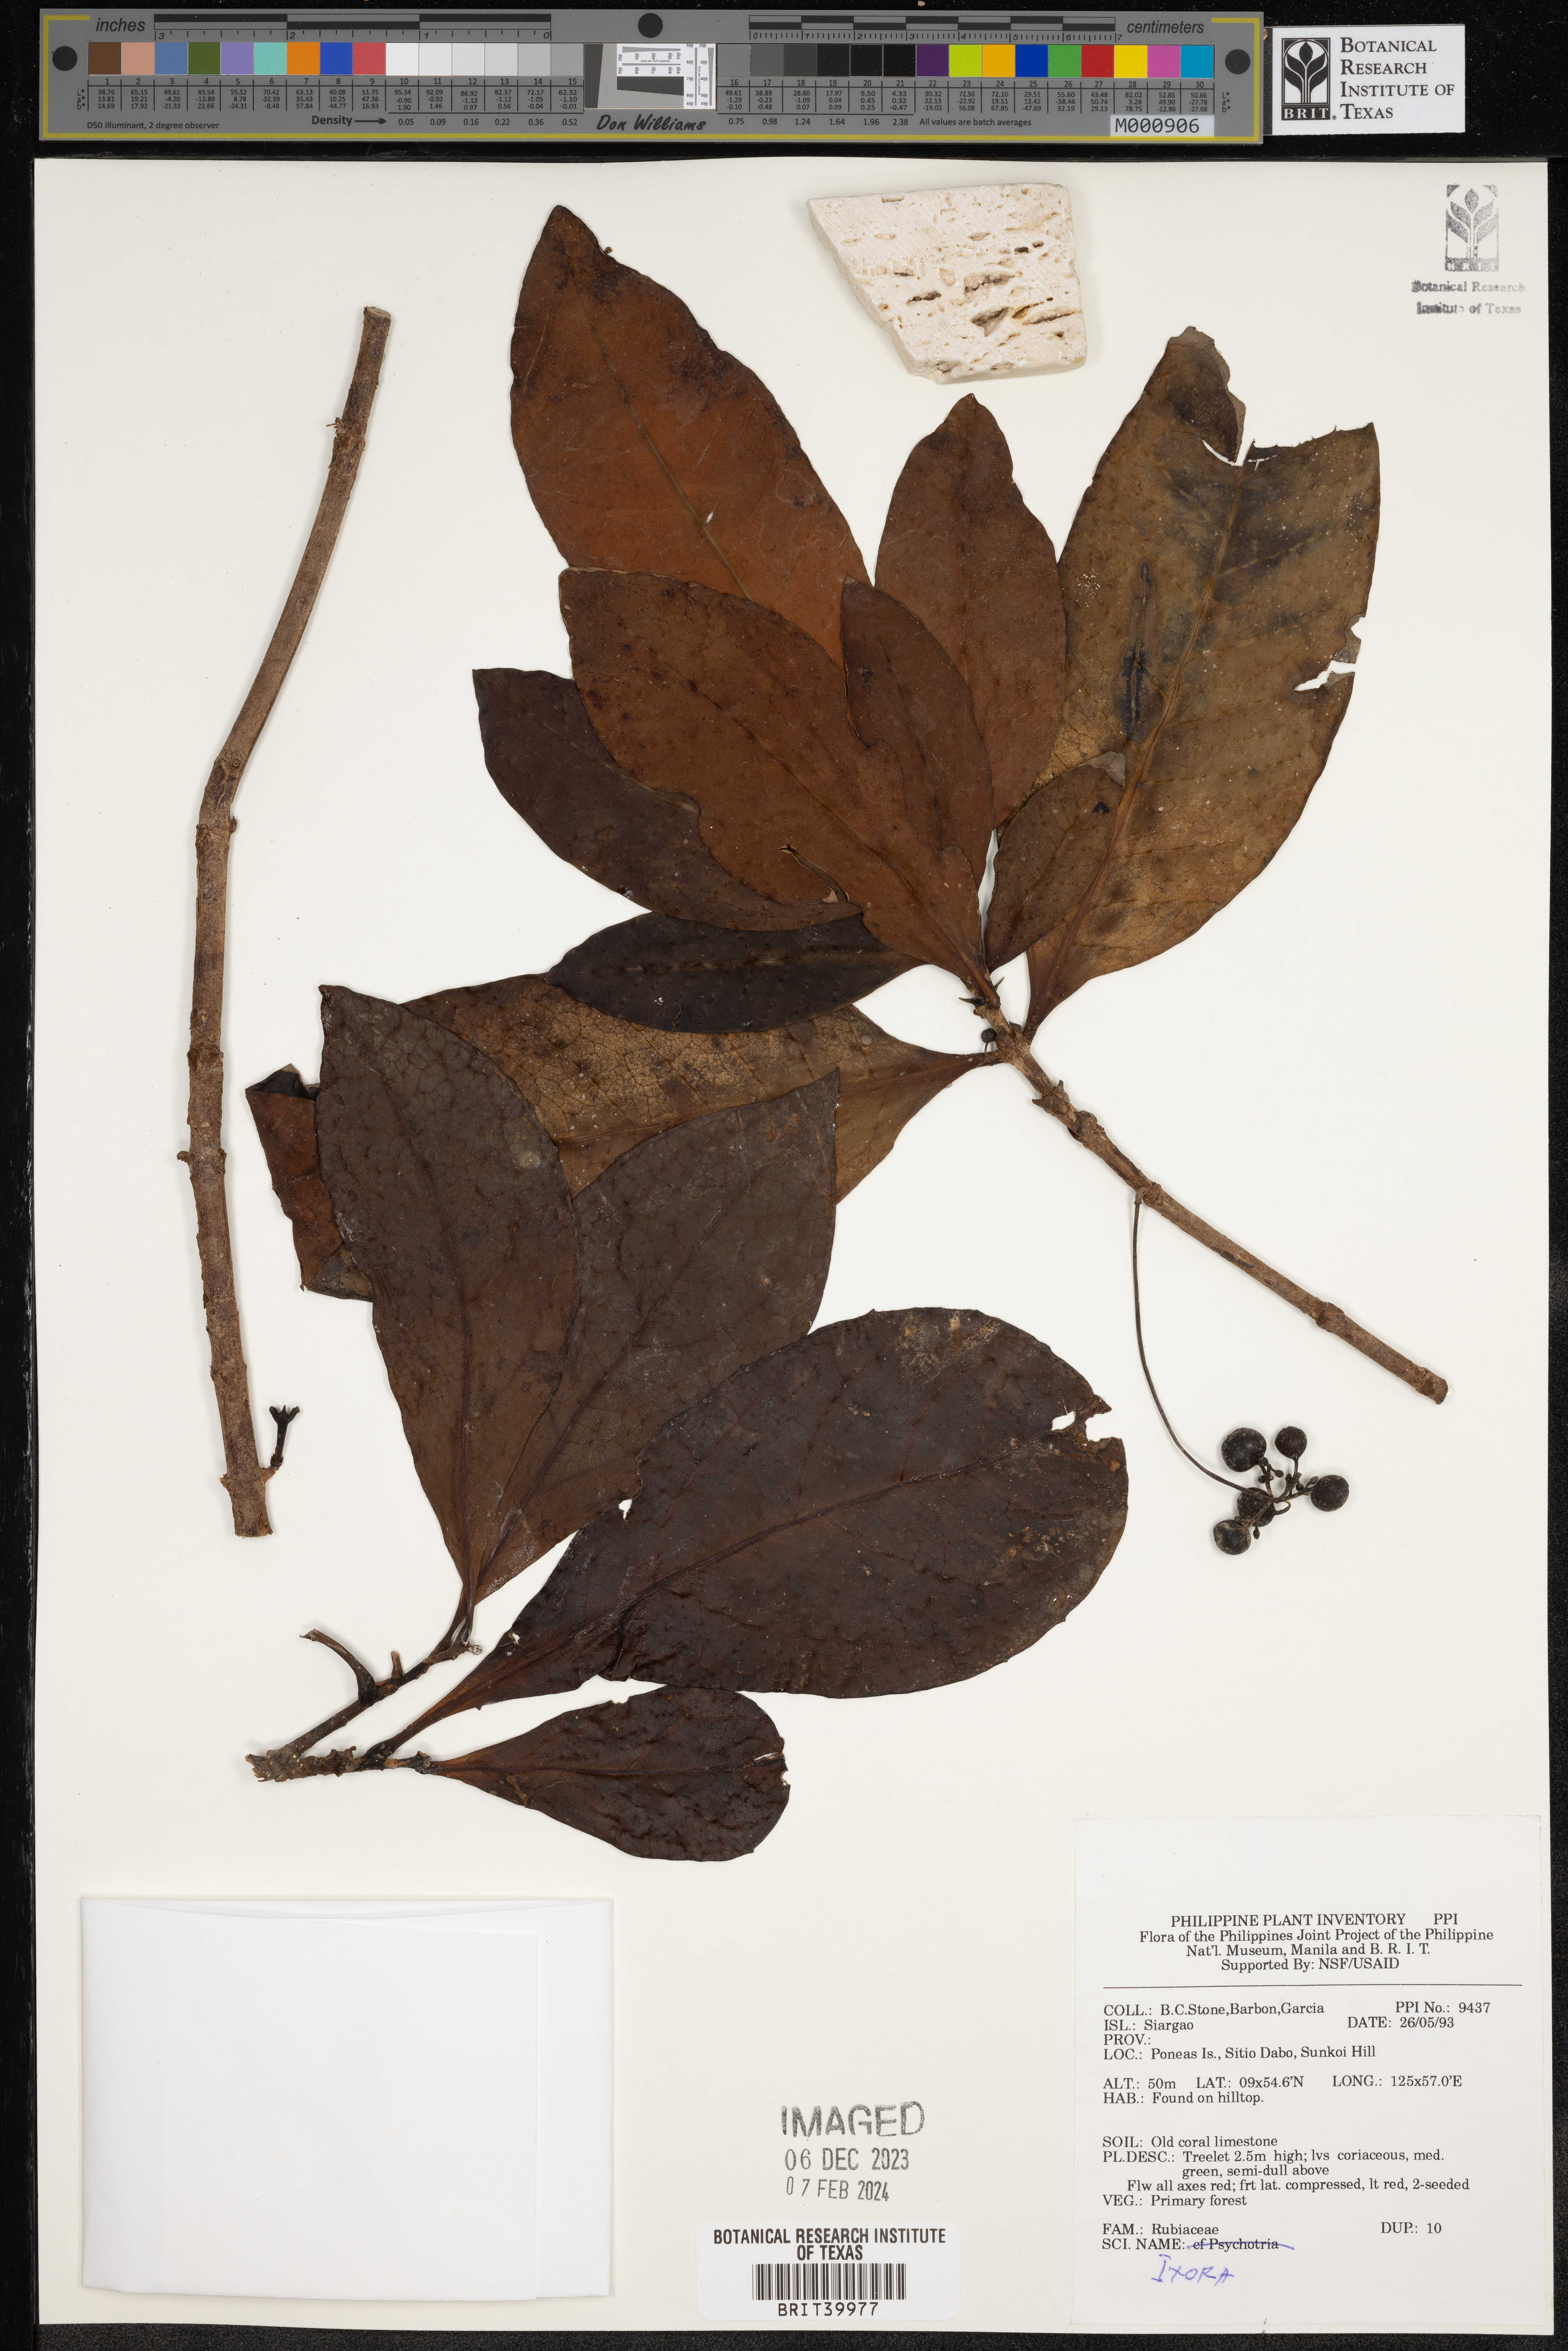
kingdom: Plantae
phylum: Tracheophyta
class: Magnoliopsida
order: Gentianales
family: Rubiaceae
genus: Ixora
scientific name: Ixora
